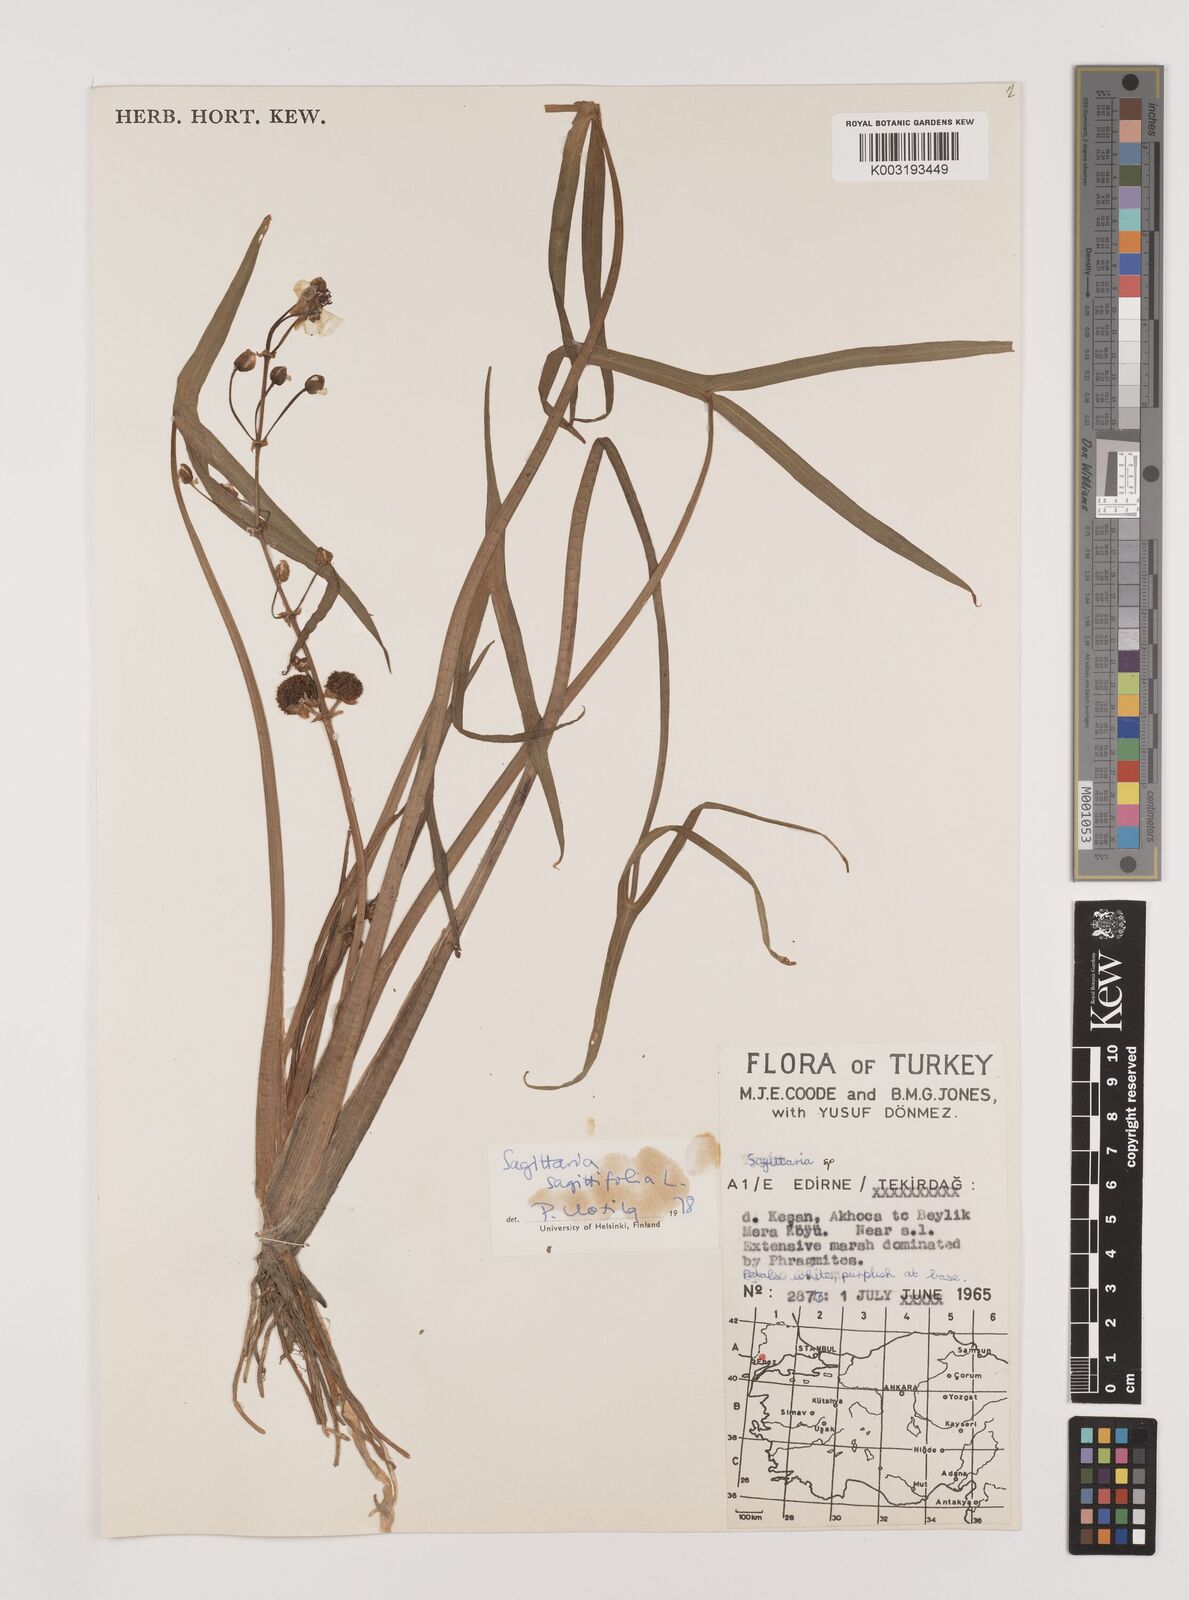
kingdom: Plantae
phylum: Tracheophyta
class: Liliopsida
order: Alismatales
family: Alismataceae
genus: Sagittaria
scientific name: Sagittaria sagittifolia
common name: Arrowhead
